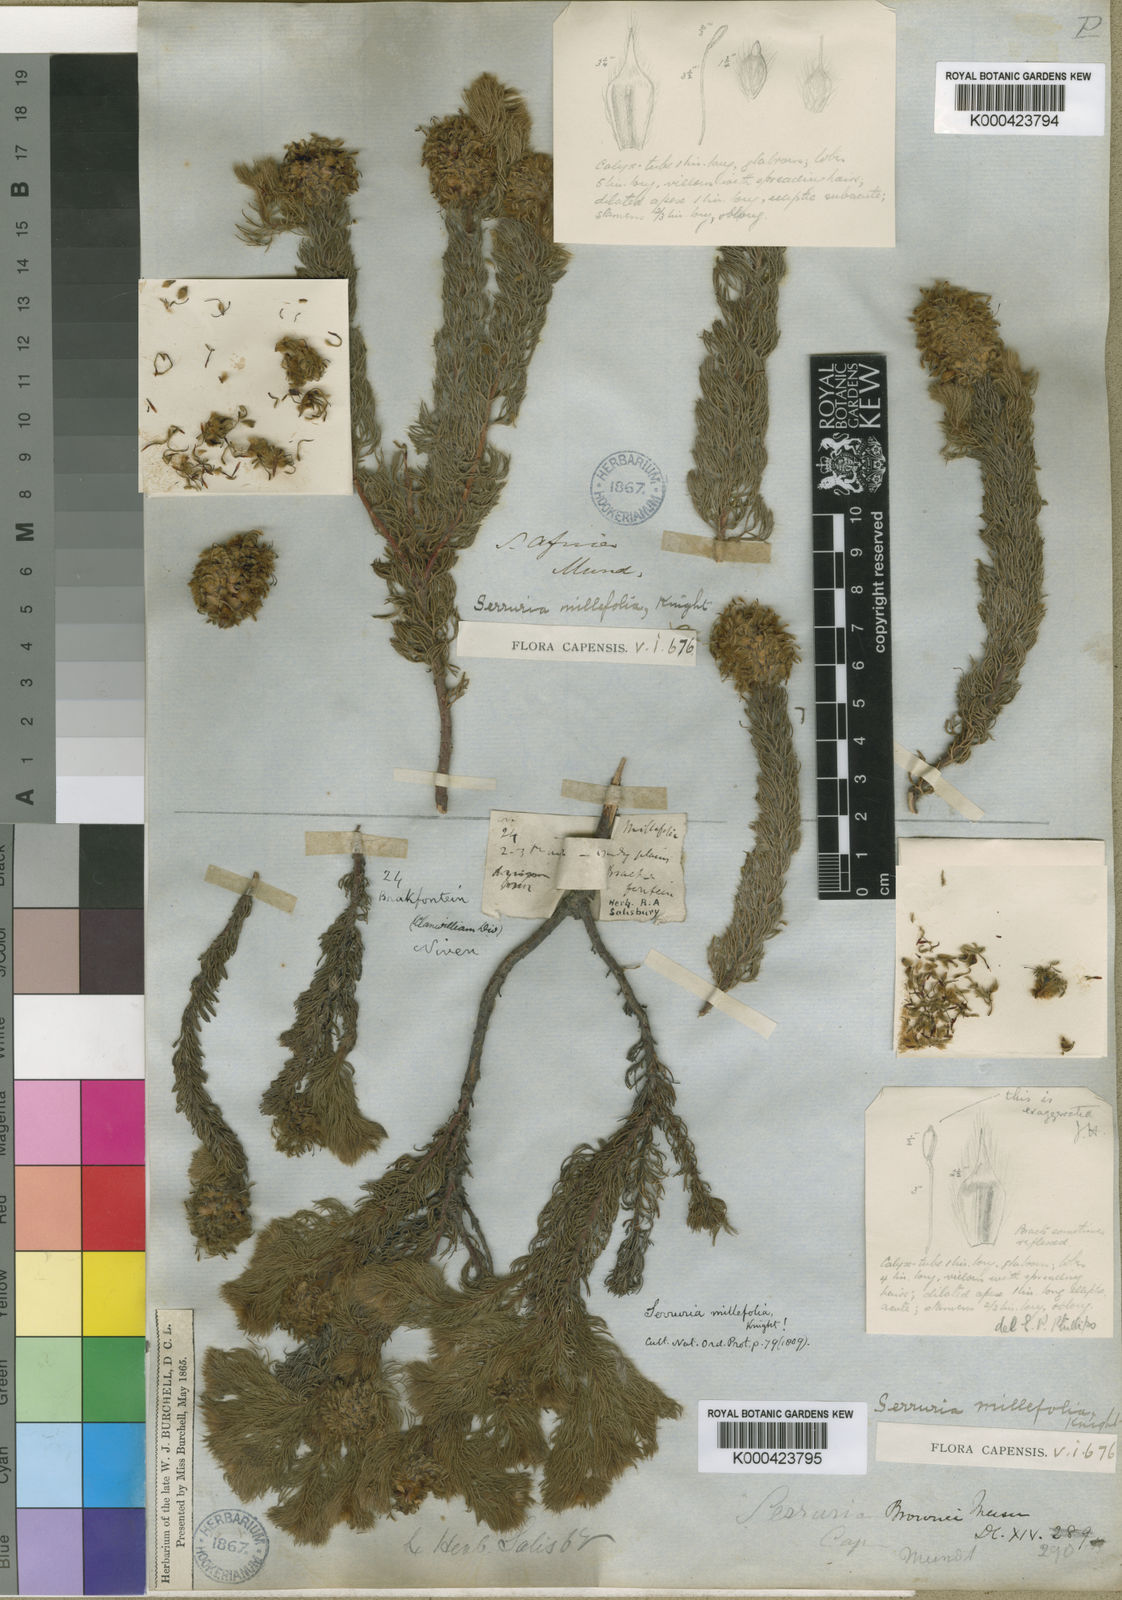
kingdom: Plantae
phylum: Tracheophyta
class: Magnoliopsida
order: Proteales
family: Proteaceae
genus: Serruria
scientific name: Serruria millefolia
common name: Millileaf spiderhead
